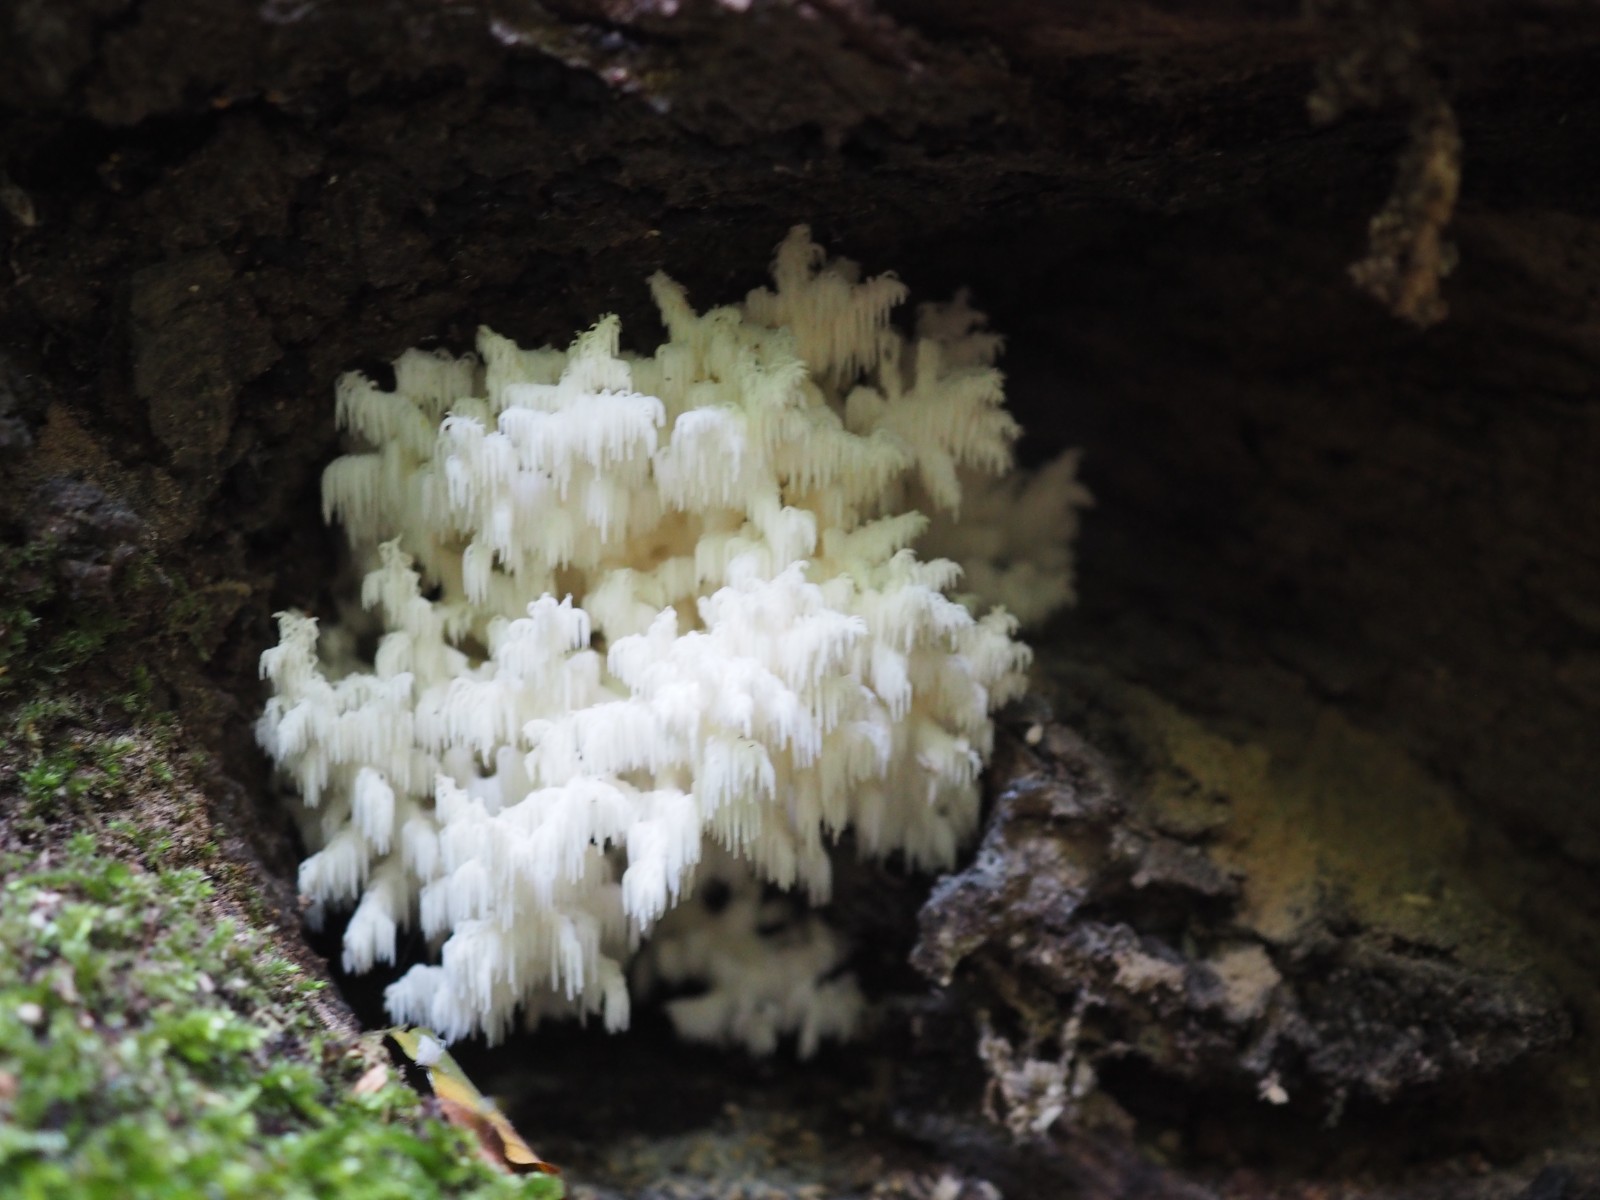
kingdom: Fungi
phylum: Basidiomycota
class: Agaricomycetes
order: Russulales
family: Hericiaceae
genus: Hericium
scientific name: Hericium coralloides
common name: koralpigsvamp
